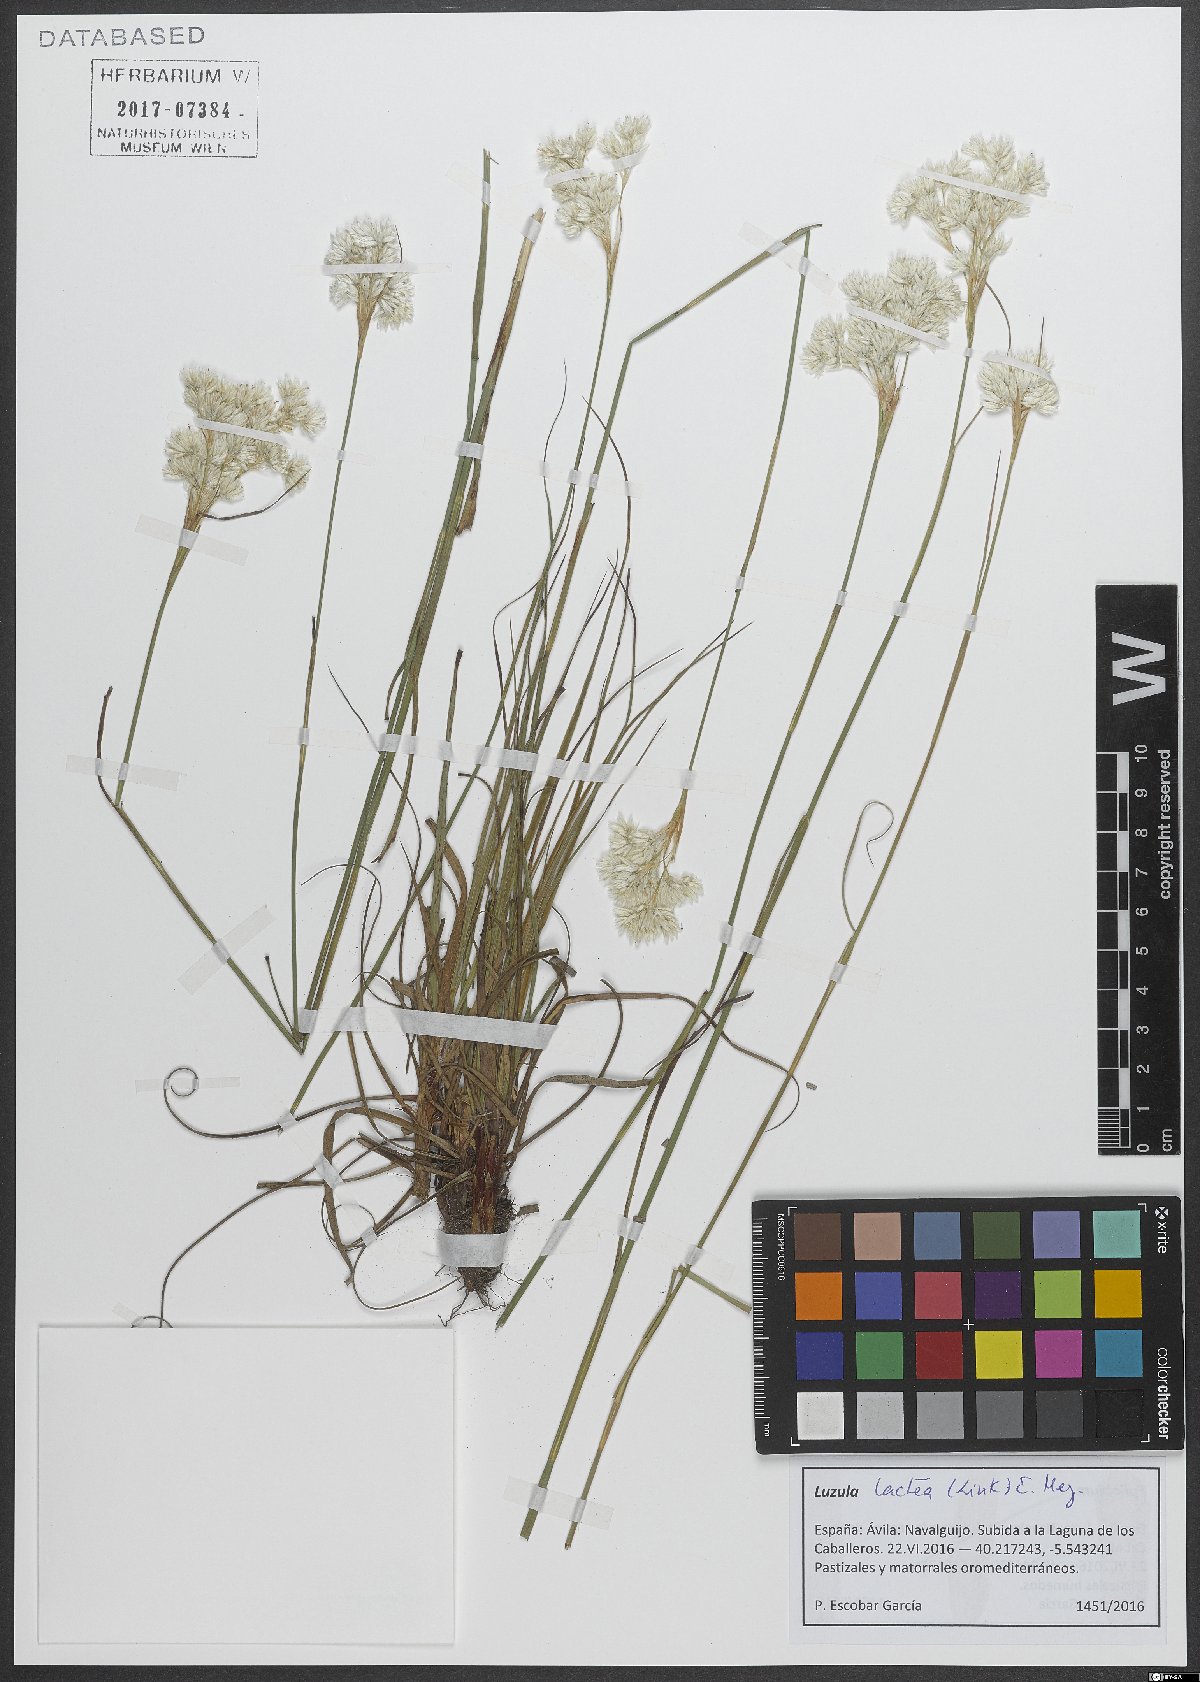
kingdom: Plantae
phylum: Tracheophyta
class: Liliopsida
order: Poales
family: Juncaceae
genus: Luzula
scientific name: Luzula lactea
